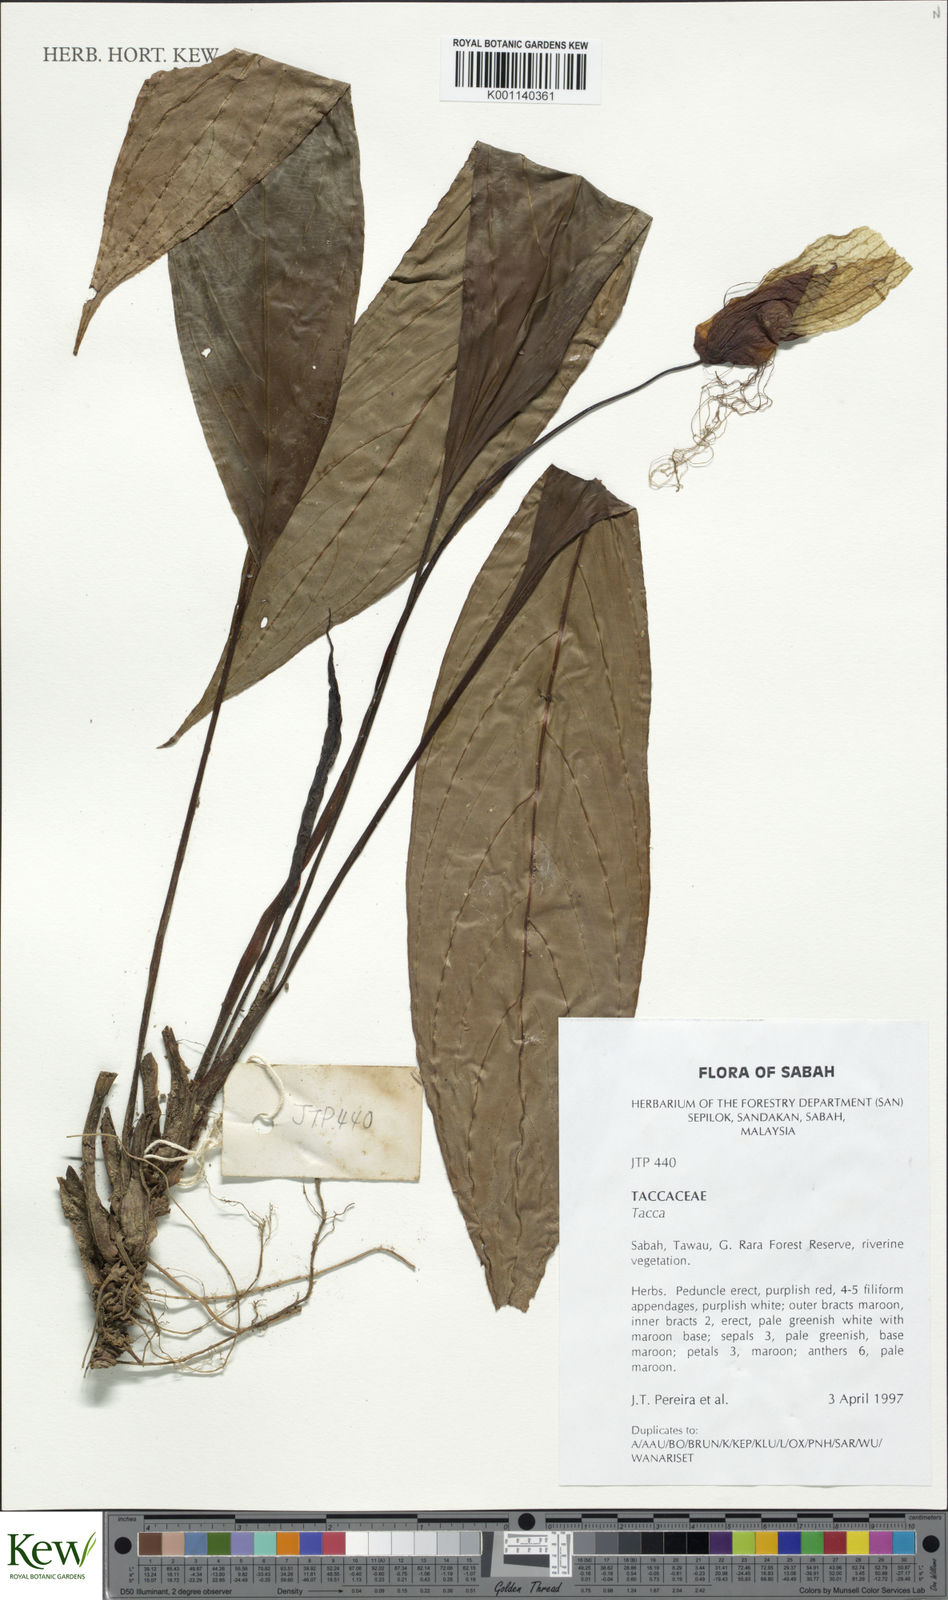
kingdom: Plantae
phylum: Tracheophyta
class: Liliopsida
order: Dioscoreales
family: Dioscoreaceae
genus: Tacca
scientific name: Tacca
